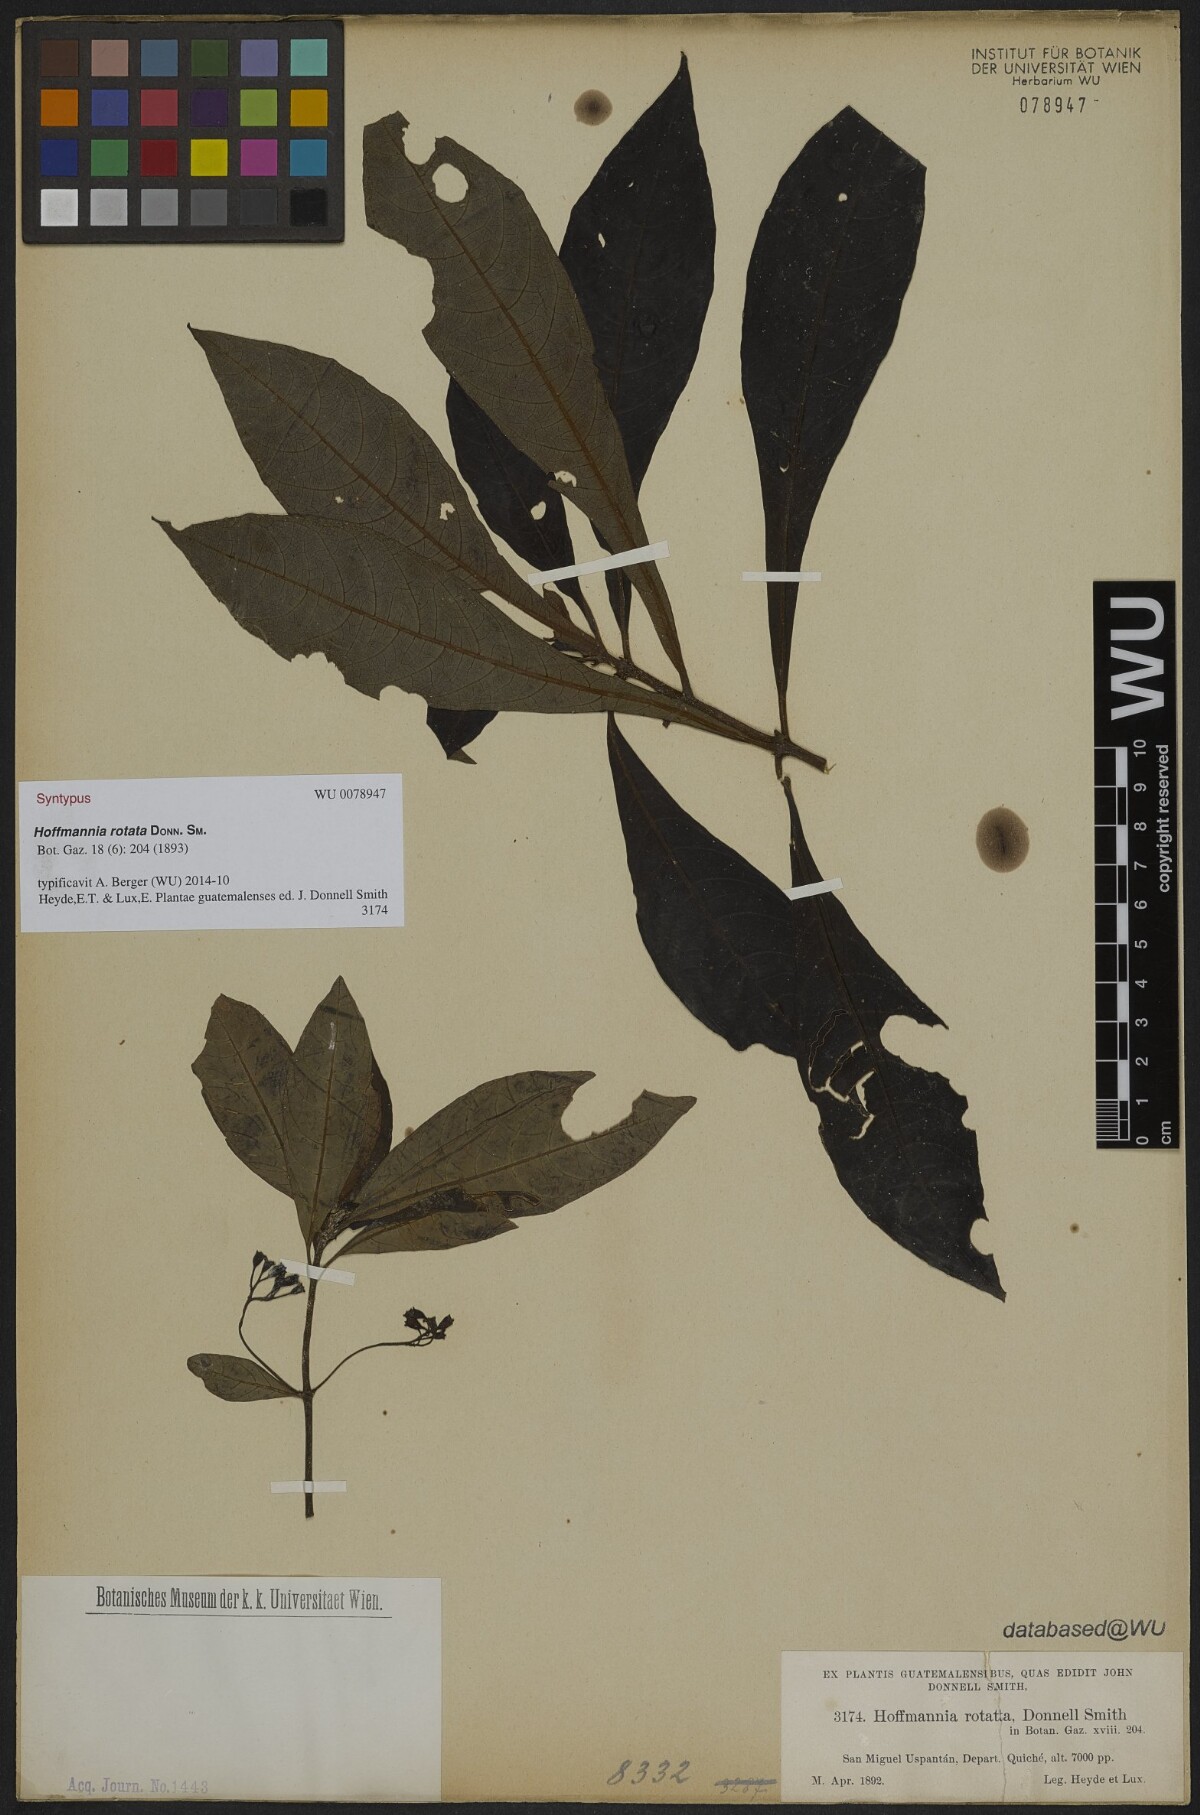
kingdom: Plantae
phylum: Tracheophyta
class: Magnoliopsida
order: Gentianales
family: Rubiaceae
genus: Hoffmannia
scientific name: Hoffmannia rotata
